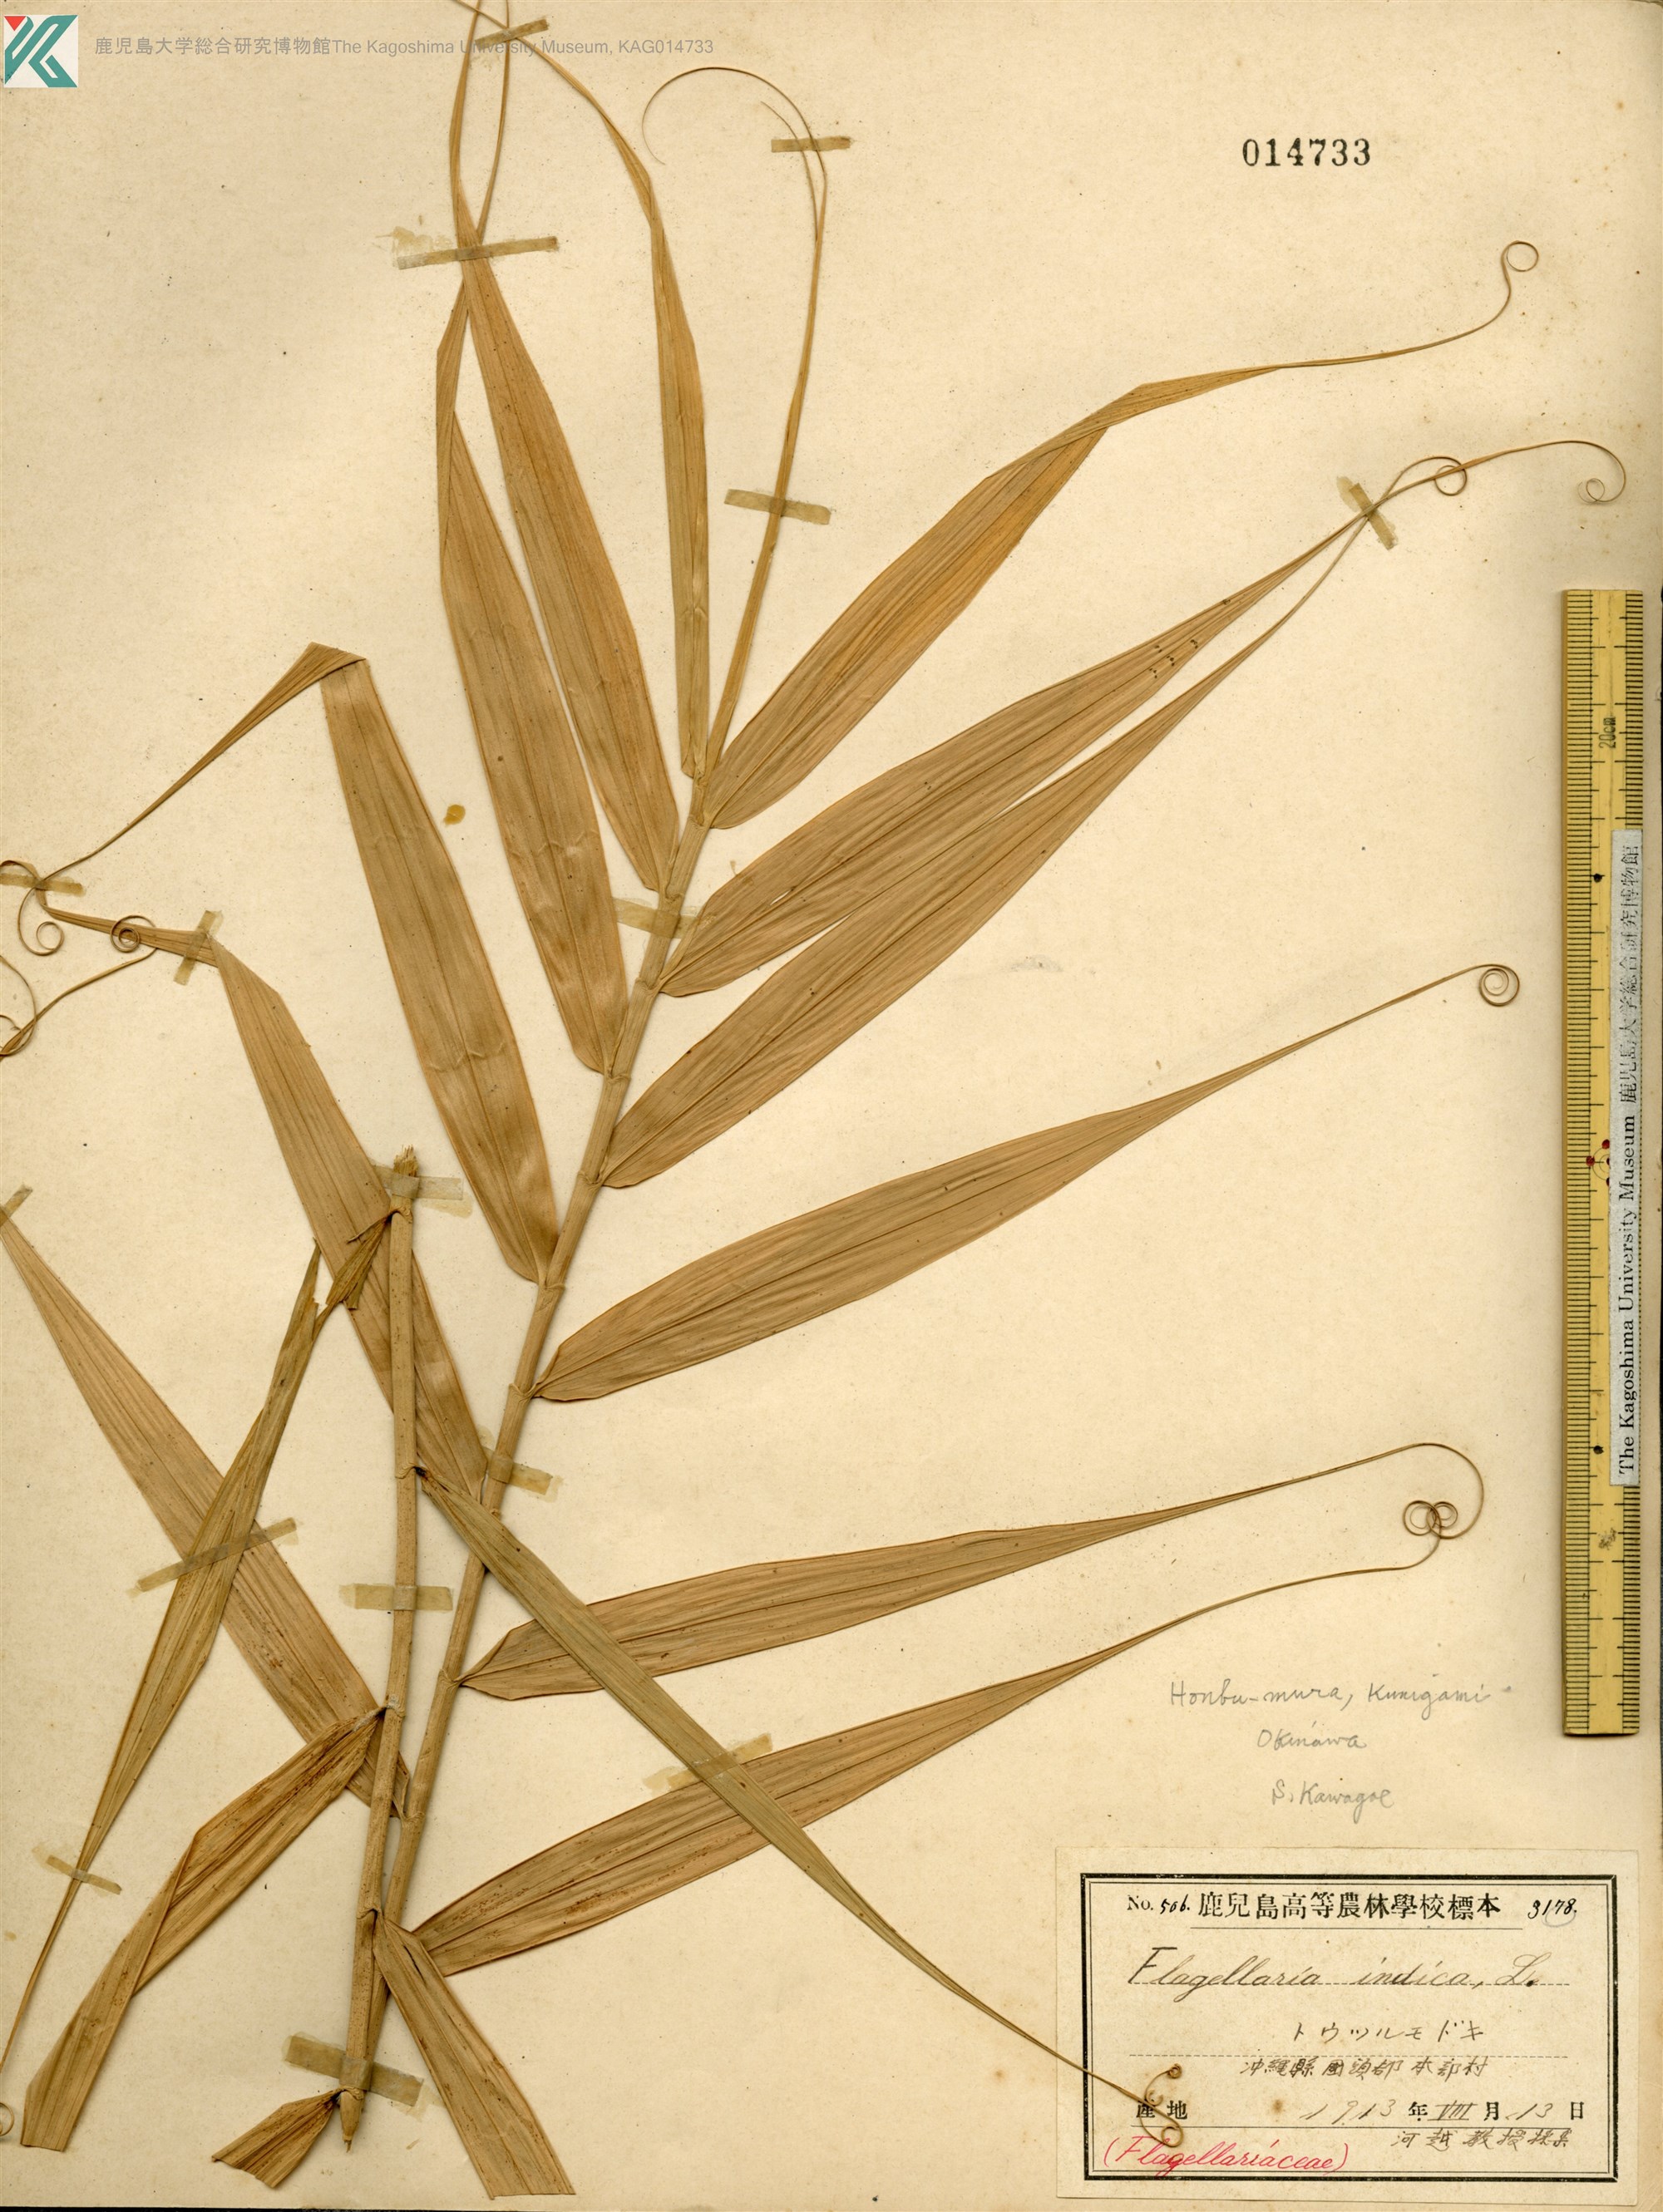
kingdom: Plantae
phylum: Tracheophyta
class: Liliopsida
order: Poales
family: Flagellariaceae
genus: Flagellaria
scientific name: Flagellaria indica
